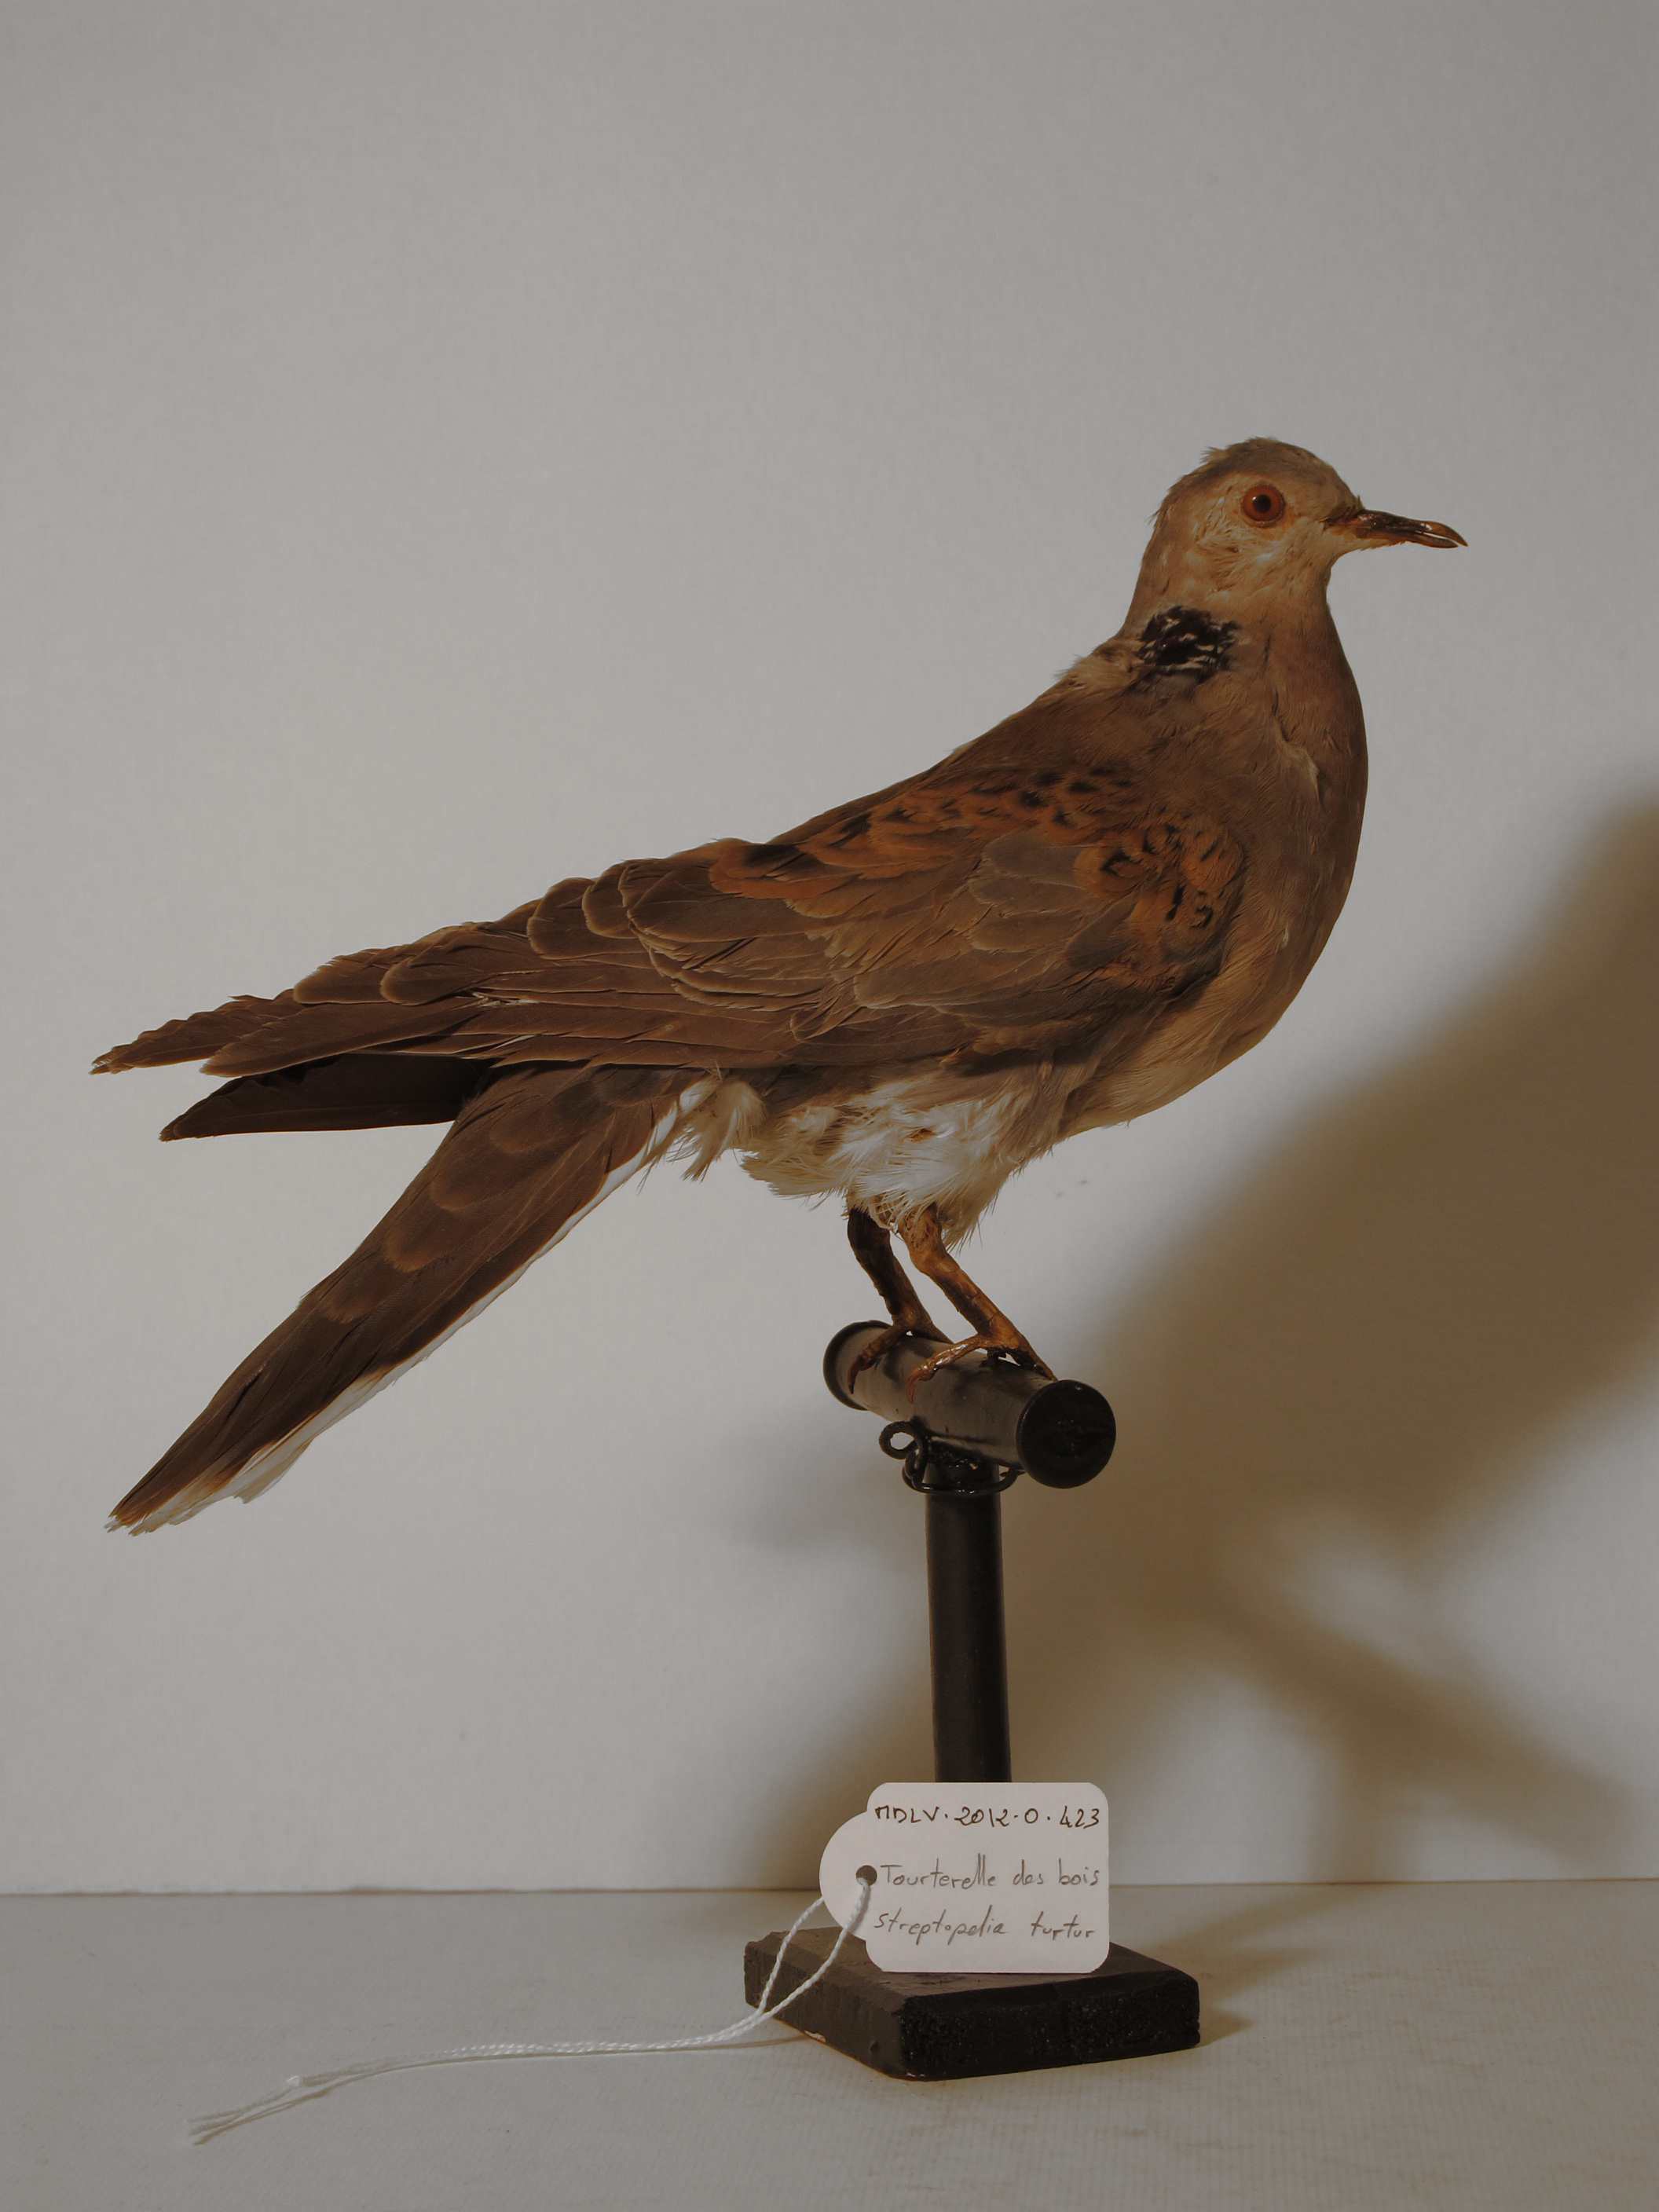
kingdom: Animalia
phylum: Chordata
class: Aves
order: Columbiformes
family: Columbidae
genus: Streptopelia
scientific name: Streptopelia turtur
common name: European Turtle-dove
